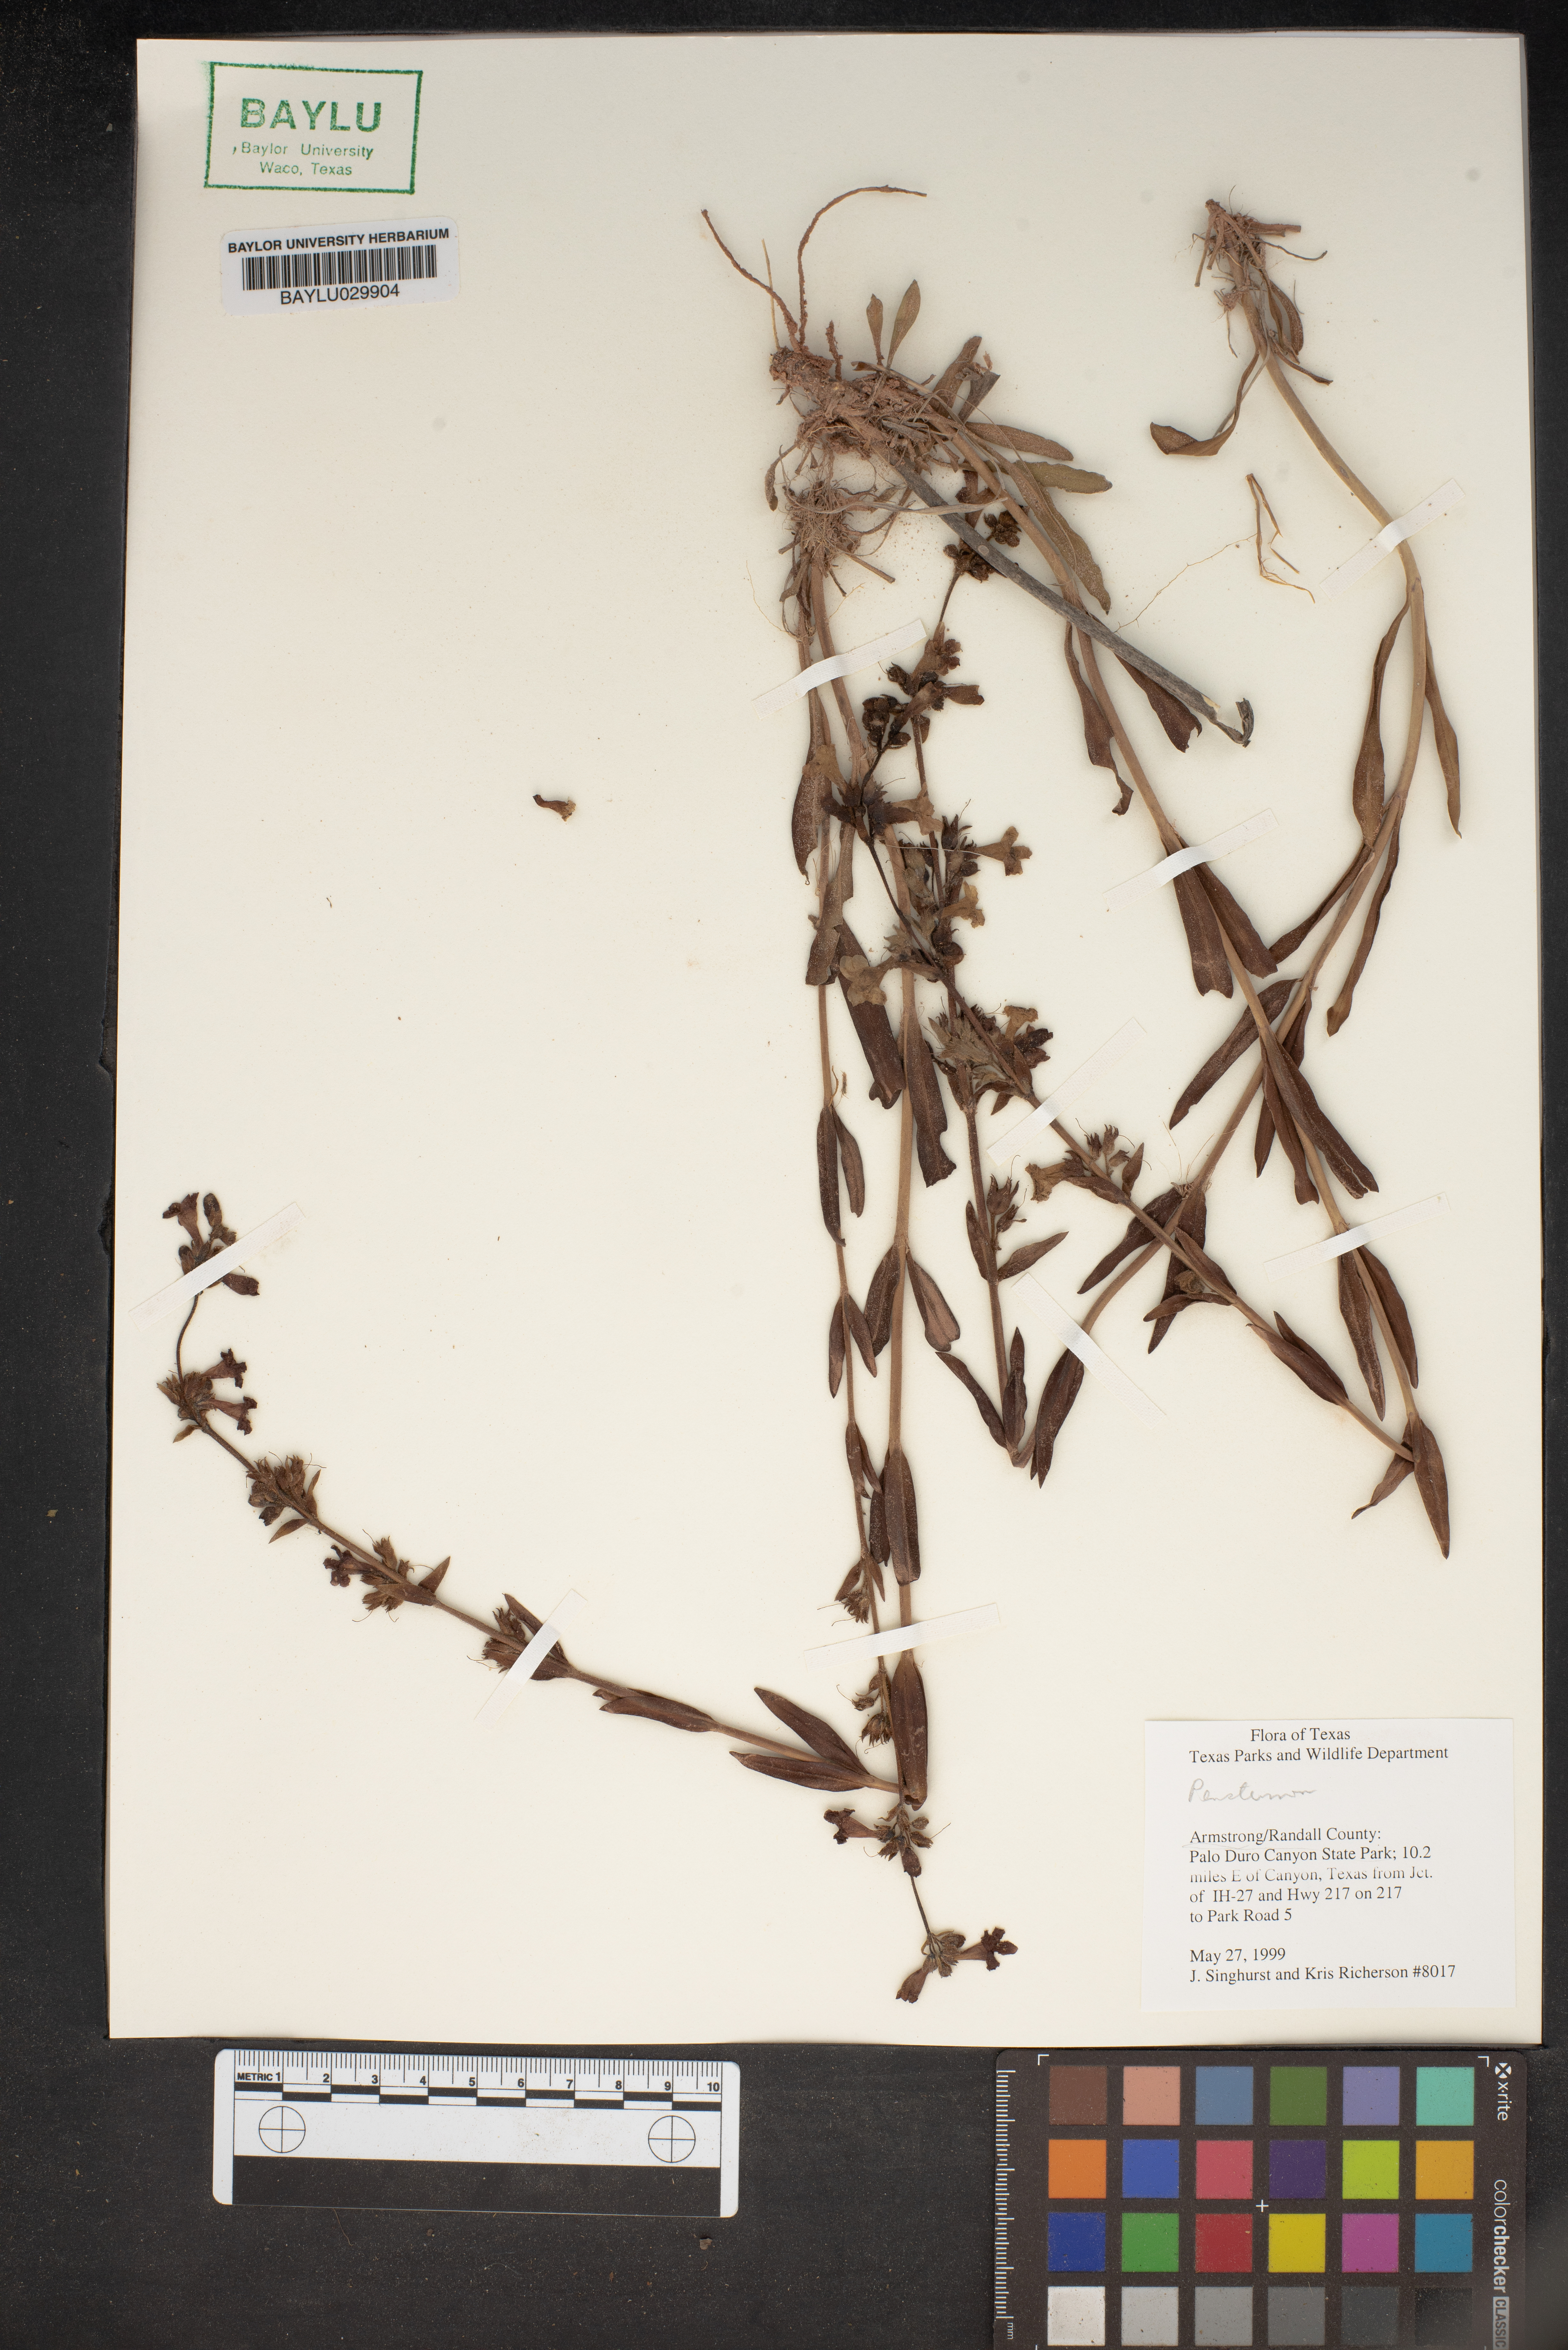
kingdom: Plantae
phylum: Tracheophyta
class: Magnoliopsida
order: Lamiales
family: Plantaginaceae
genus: Penstemon
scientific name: Penstemon
